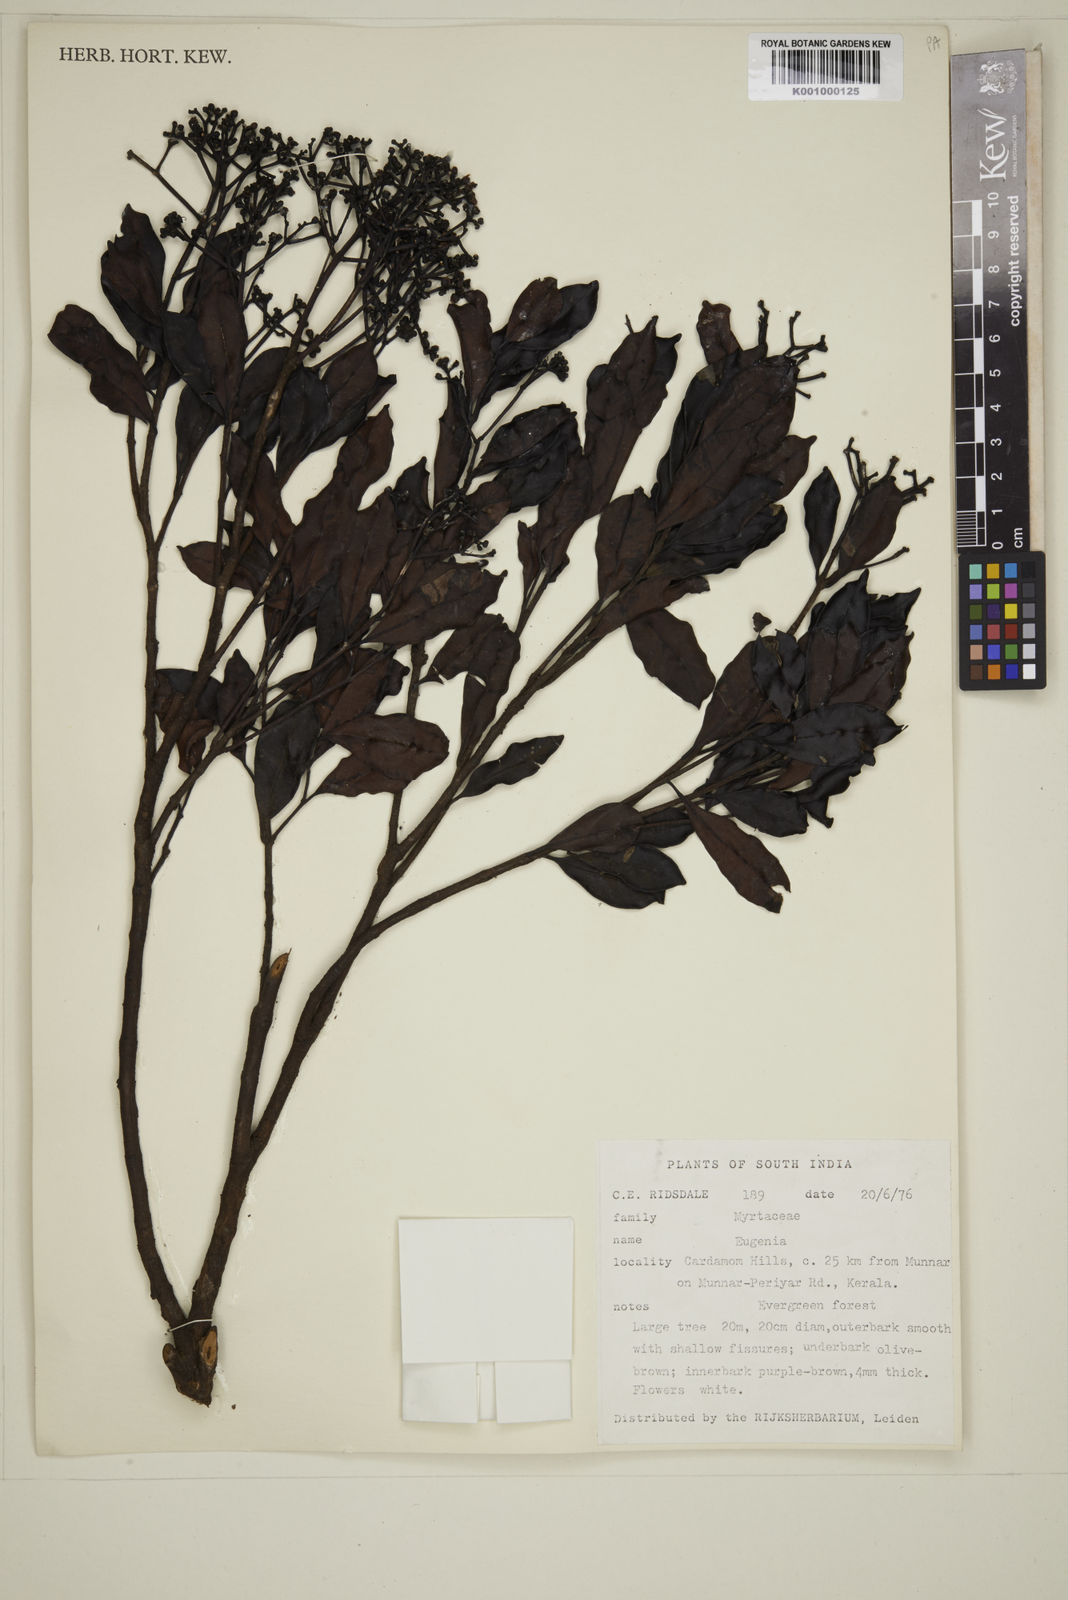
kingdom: Plantae
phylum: Tracheophyta
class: Magnoliopsida
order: Myrtales
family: Myrtaceae
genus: Eugenia
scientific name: Eugenia
